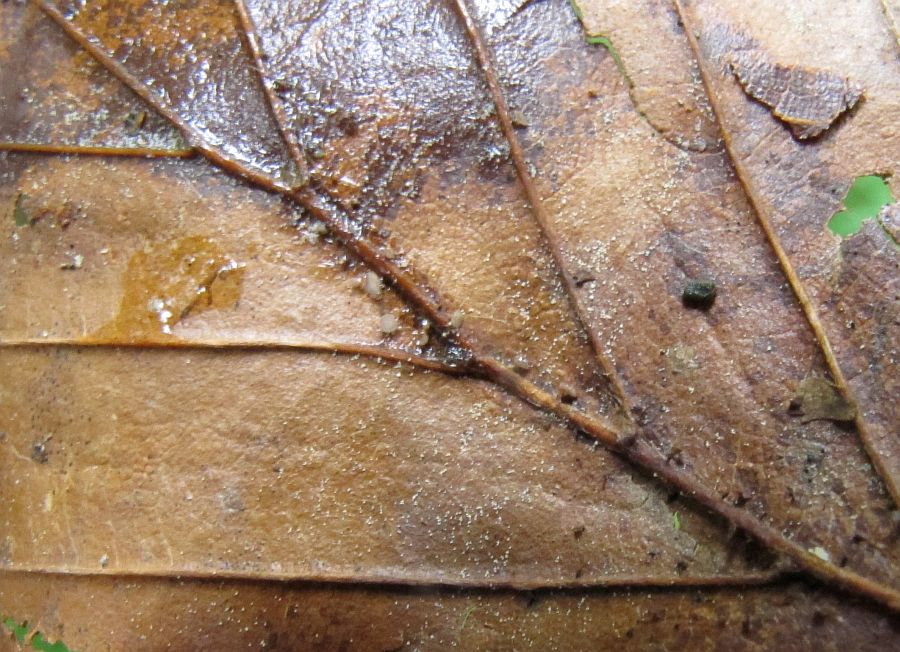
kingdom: Fungi
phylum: Ascomycota
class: Leotiomycetes
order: Helotiales
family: Lachnaceae
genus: Brunnipila
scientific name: Brunnipila fuscescens
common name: bøge-frynseskive
